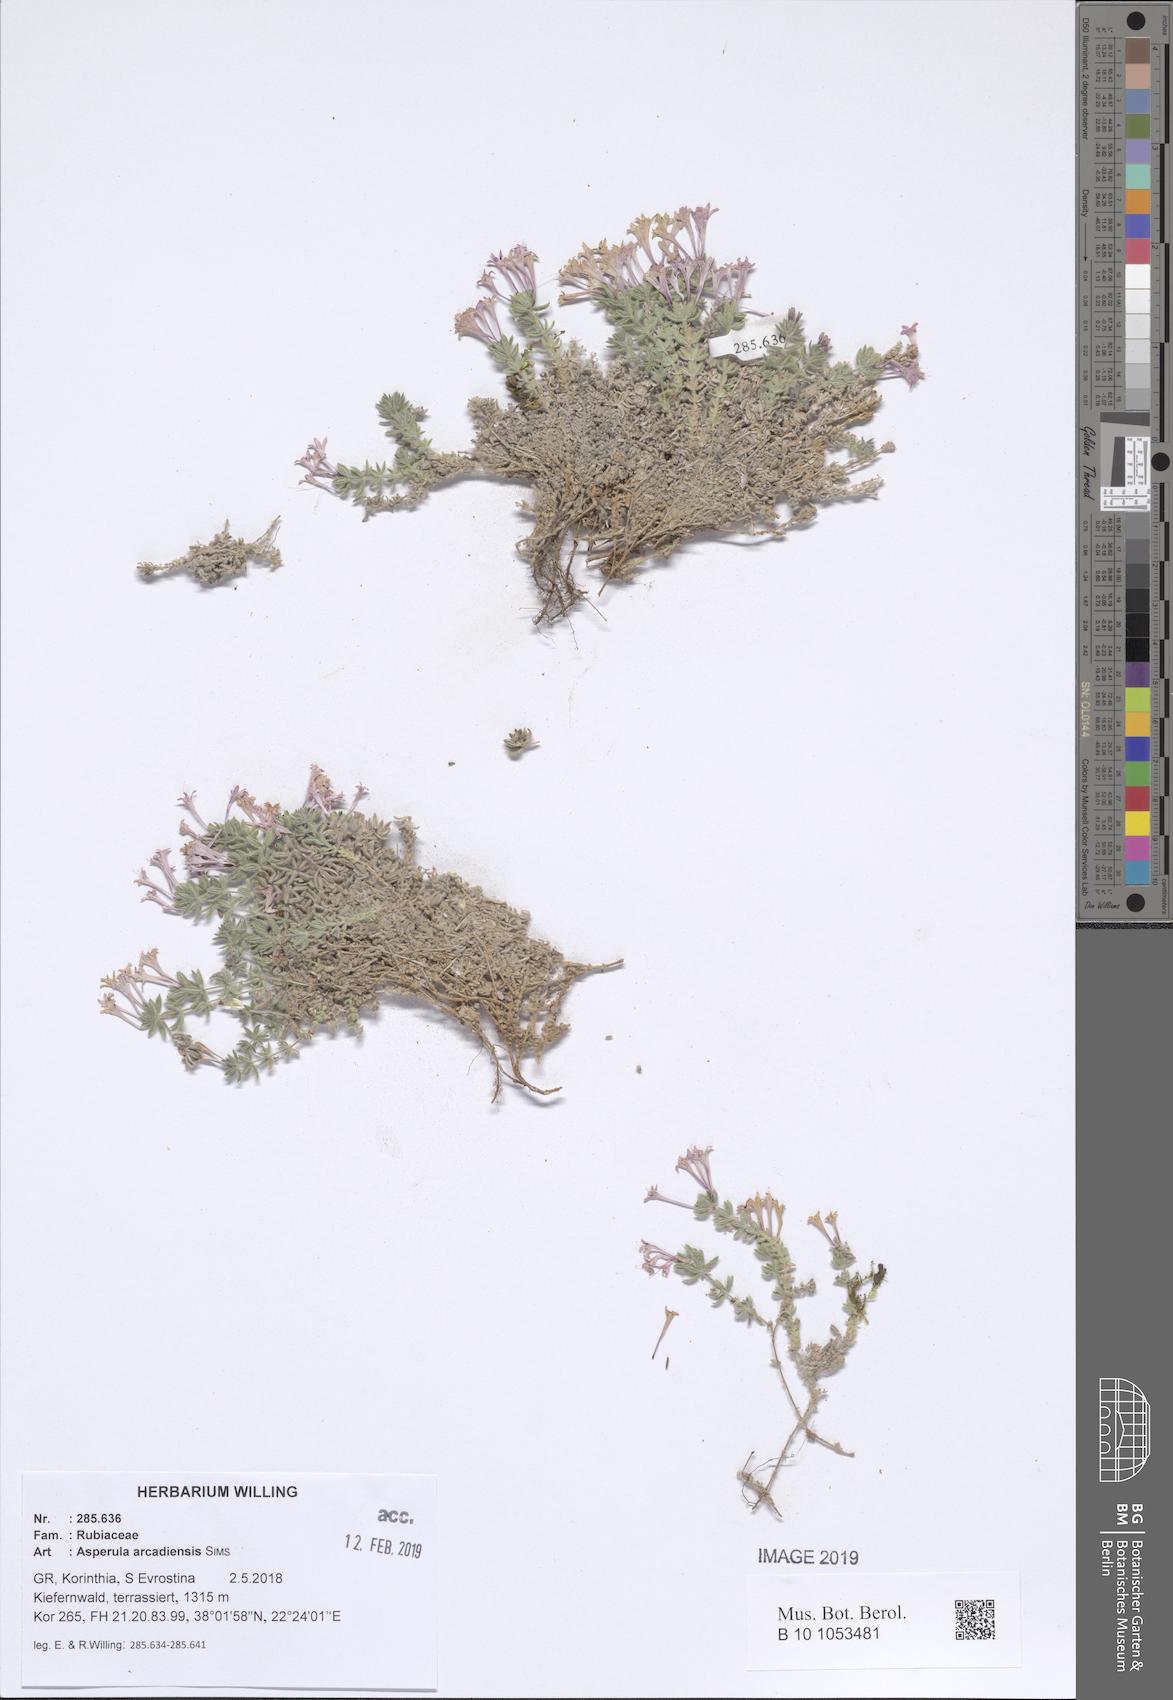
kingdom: Plantae
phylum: Tracheophyta
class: Magnoliopsida
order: Gentianales
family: Rubiaceae
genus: Hexaphylla
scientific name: Hexaphylla arcadiensis
